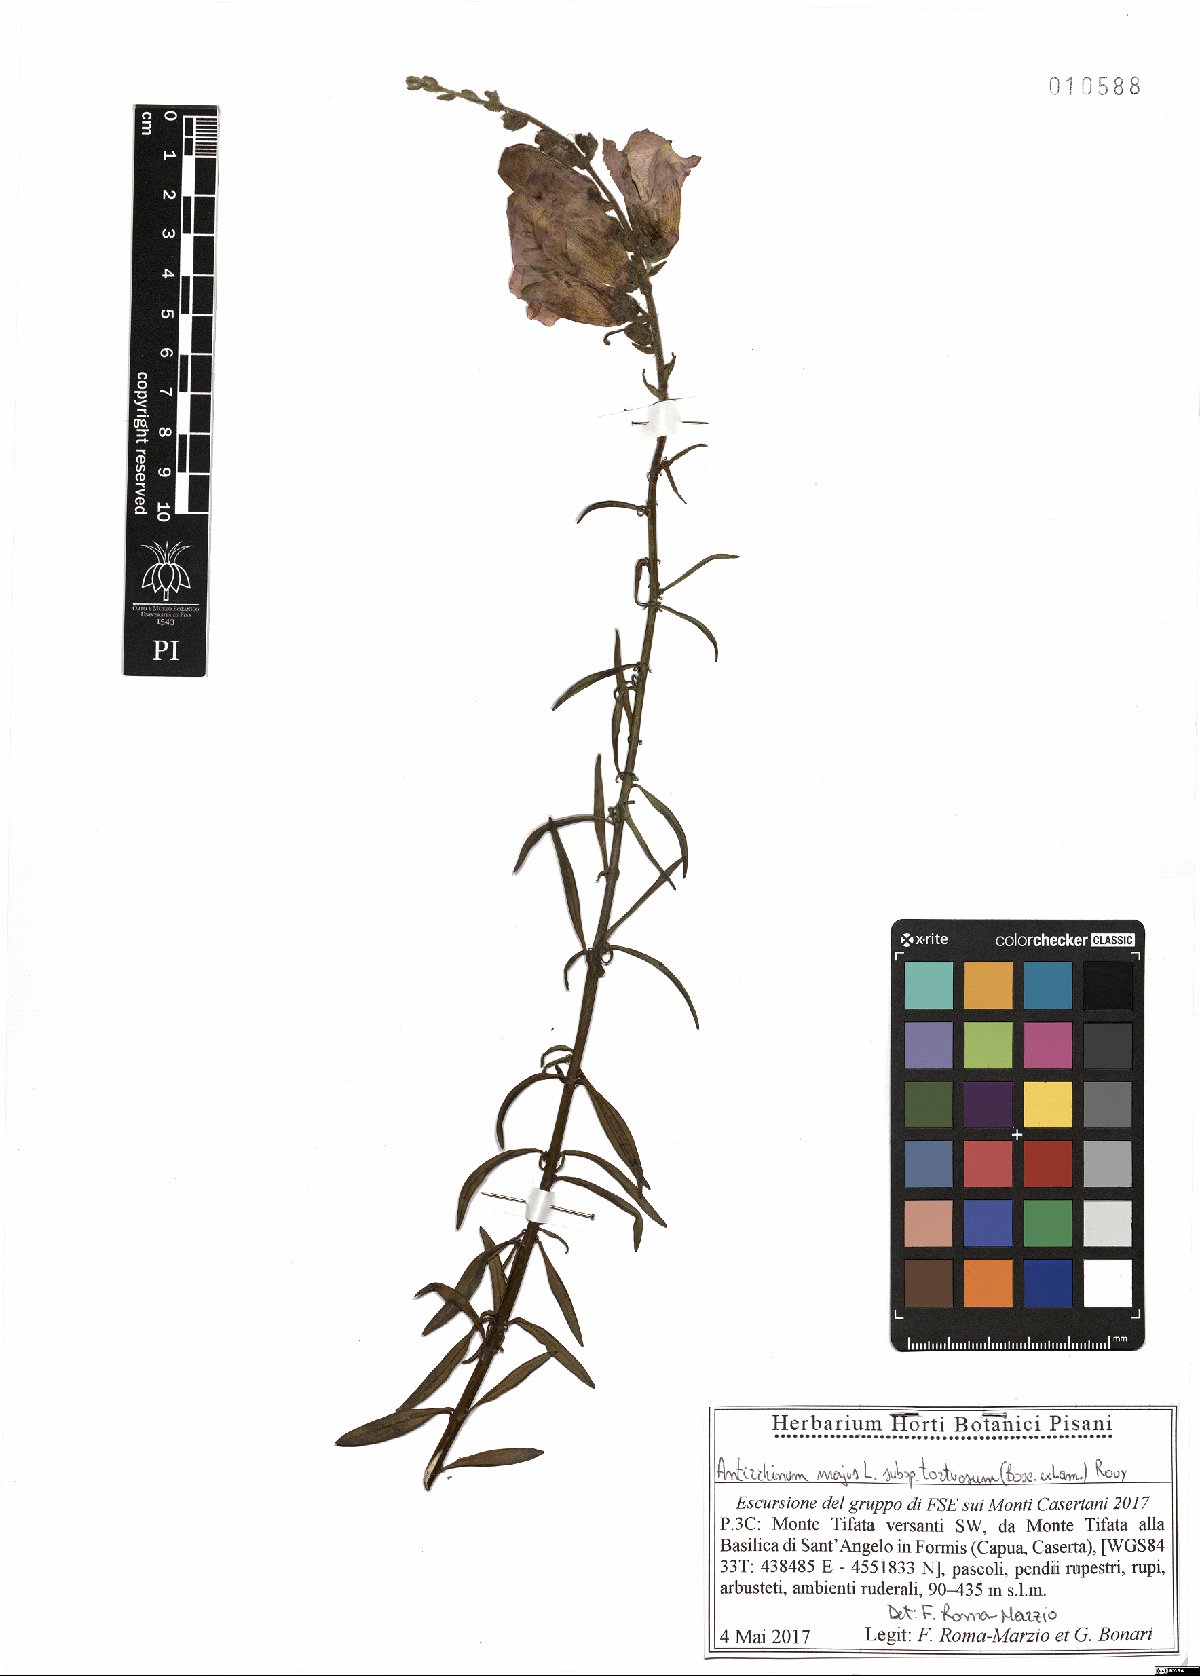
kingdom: Plantae
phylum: Tracheophyta
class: Magnoliopsida
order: Lamiales
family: Plantaginaceae
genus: Antirrhinum
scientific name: Antirrhinum tortuosum
